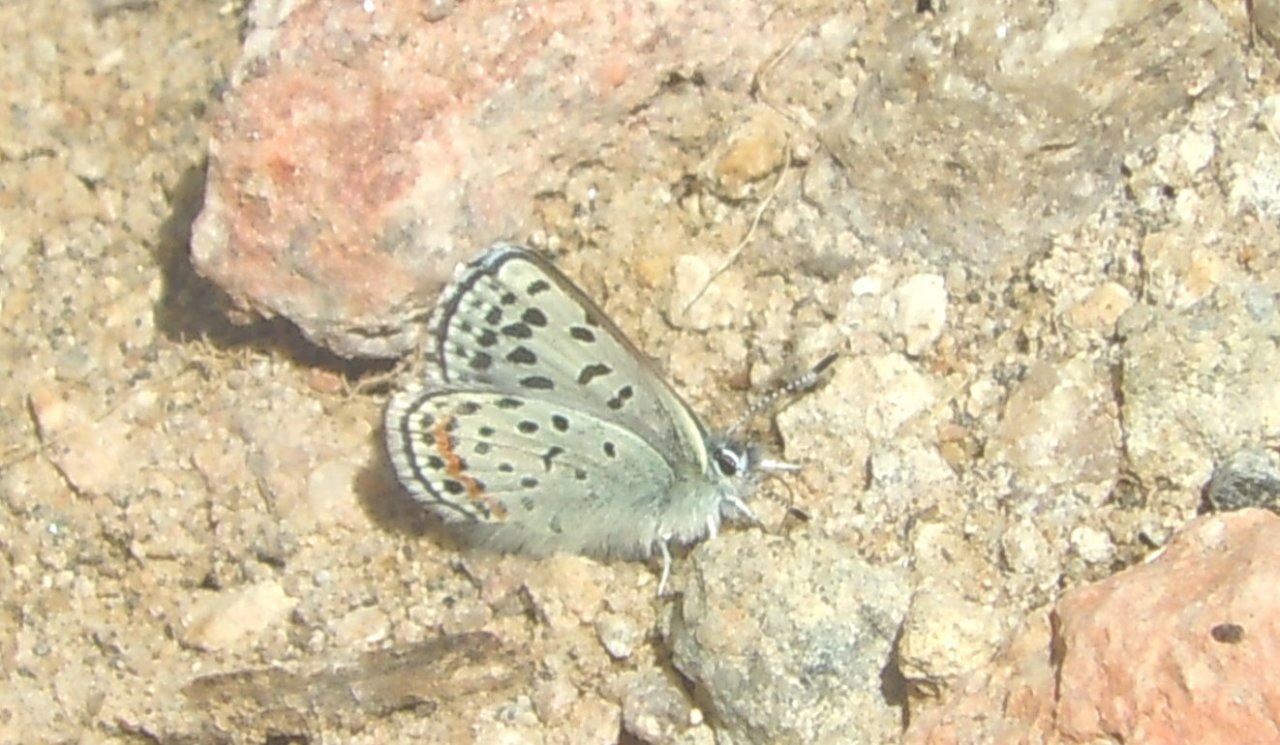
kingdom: Animalia
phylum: Arthropoda
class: Insecta
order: Lepidoptera
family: Lycaenidae
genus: Euphilotes
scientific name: Euphilotes battoides
